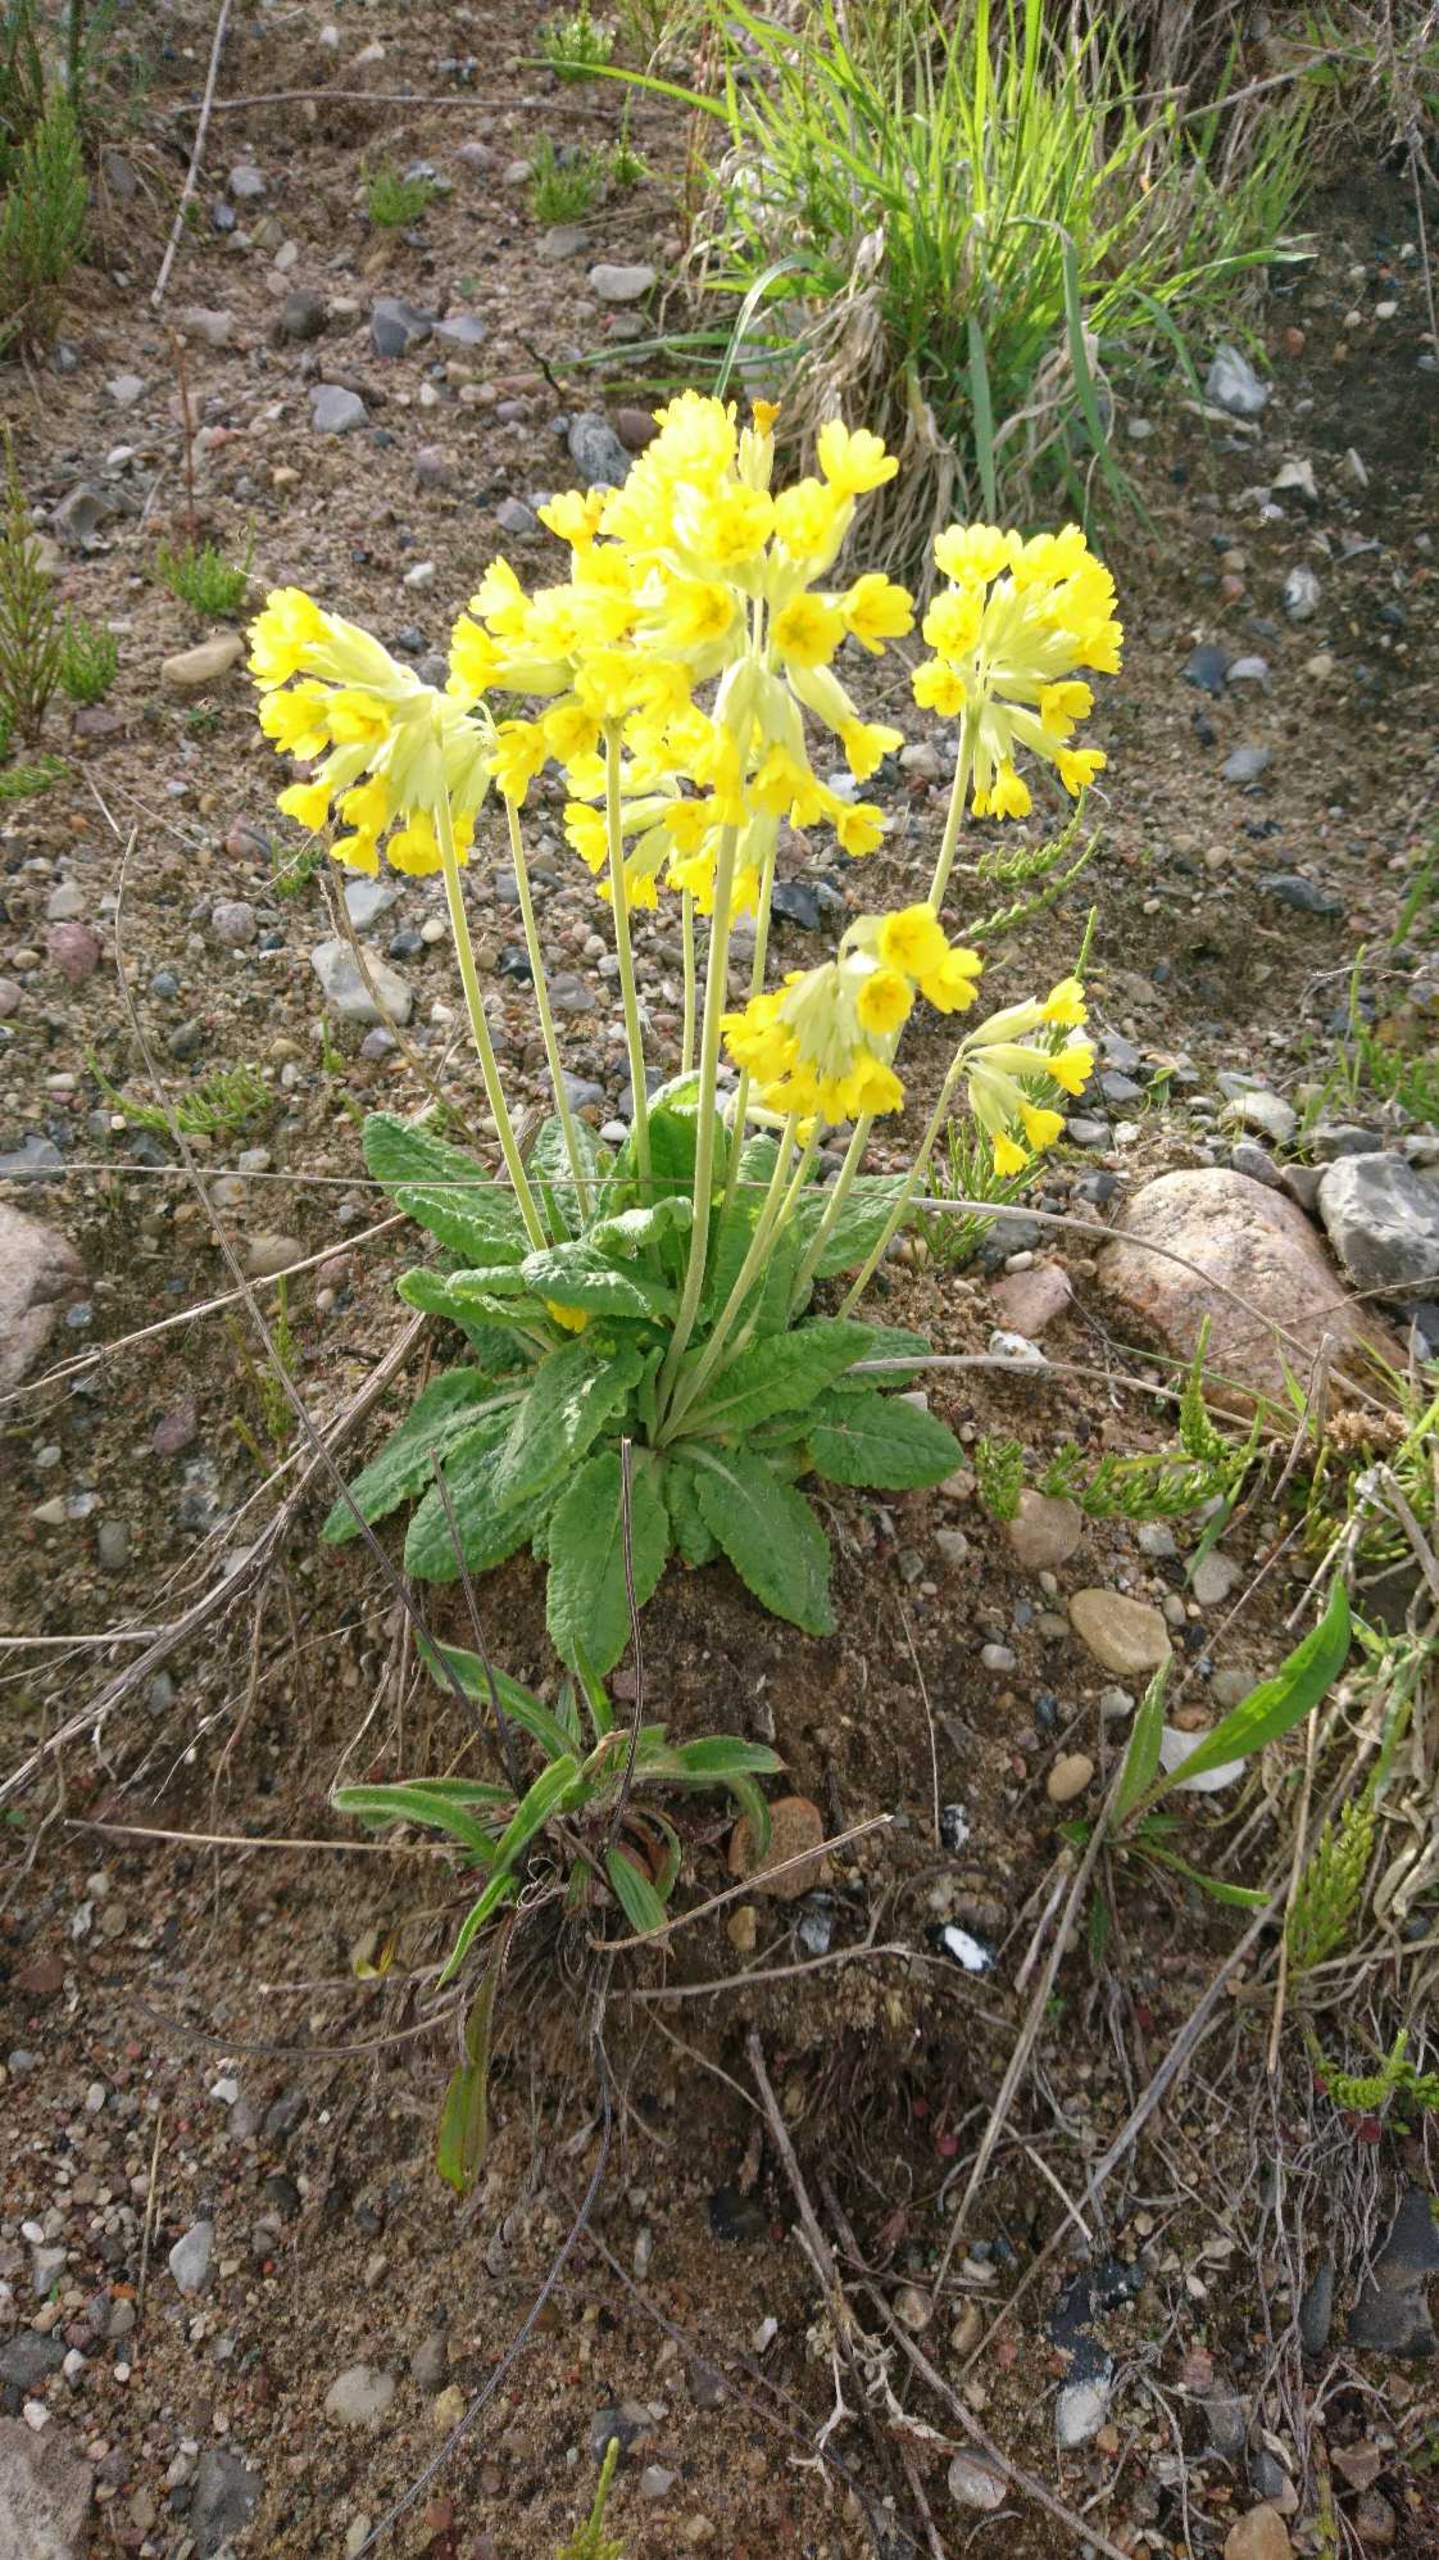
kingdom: Plantae
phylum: Tracheophyta
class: Magnoliopsida
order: Ericales
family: Primulaceae
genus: Primula
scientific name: Primula veris
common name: Hulkravet kodriver
